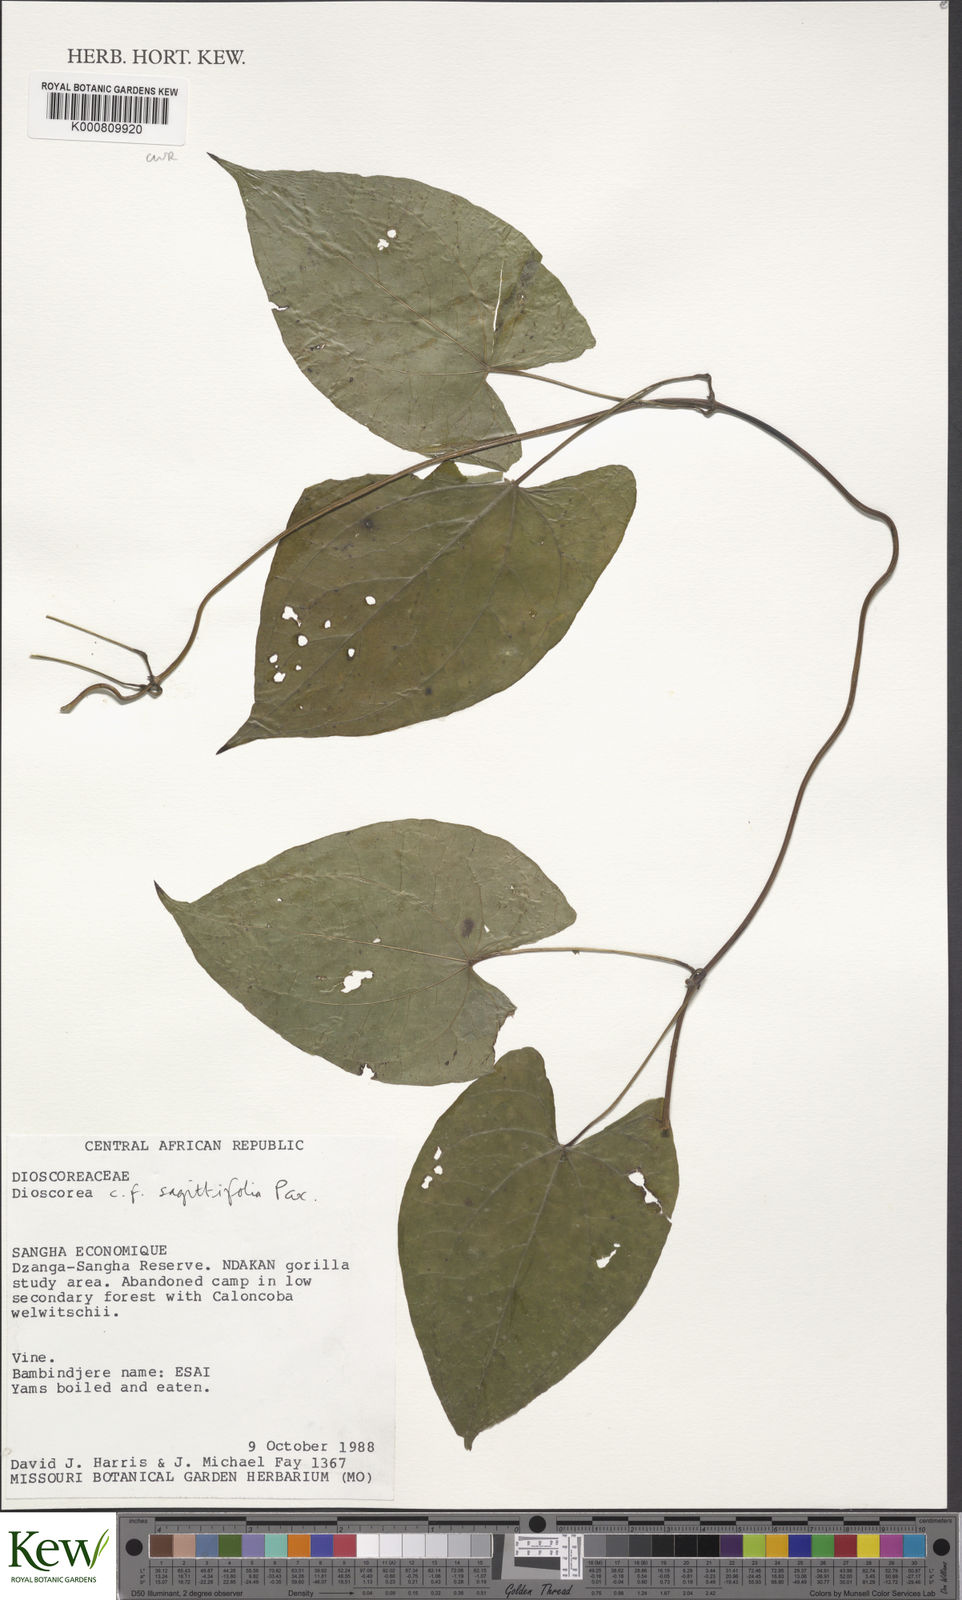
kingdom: Plantae
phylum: Tracheophyta
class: Liliopsida
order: Dioscoreales
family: Dioscoreaceae
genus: Dioscorea
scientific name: Dioscorea sagittifolia
